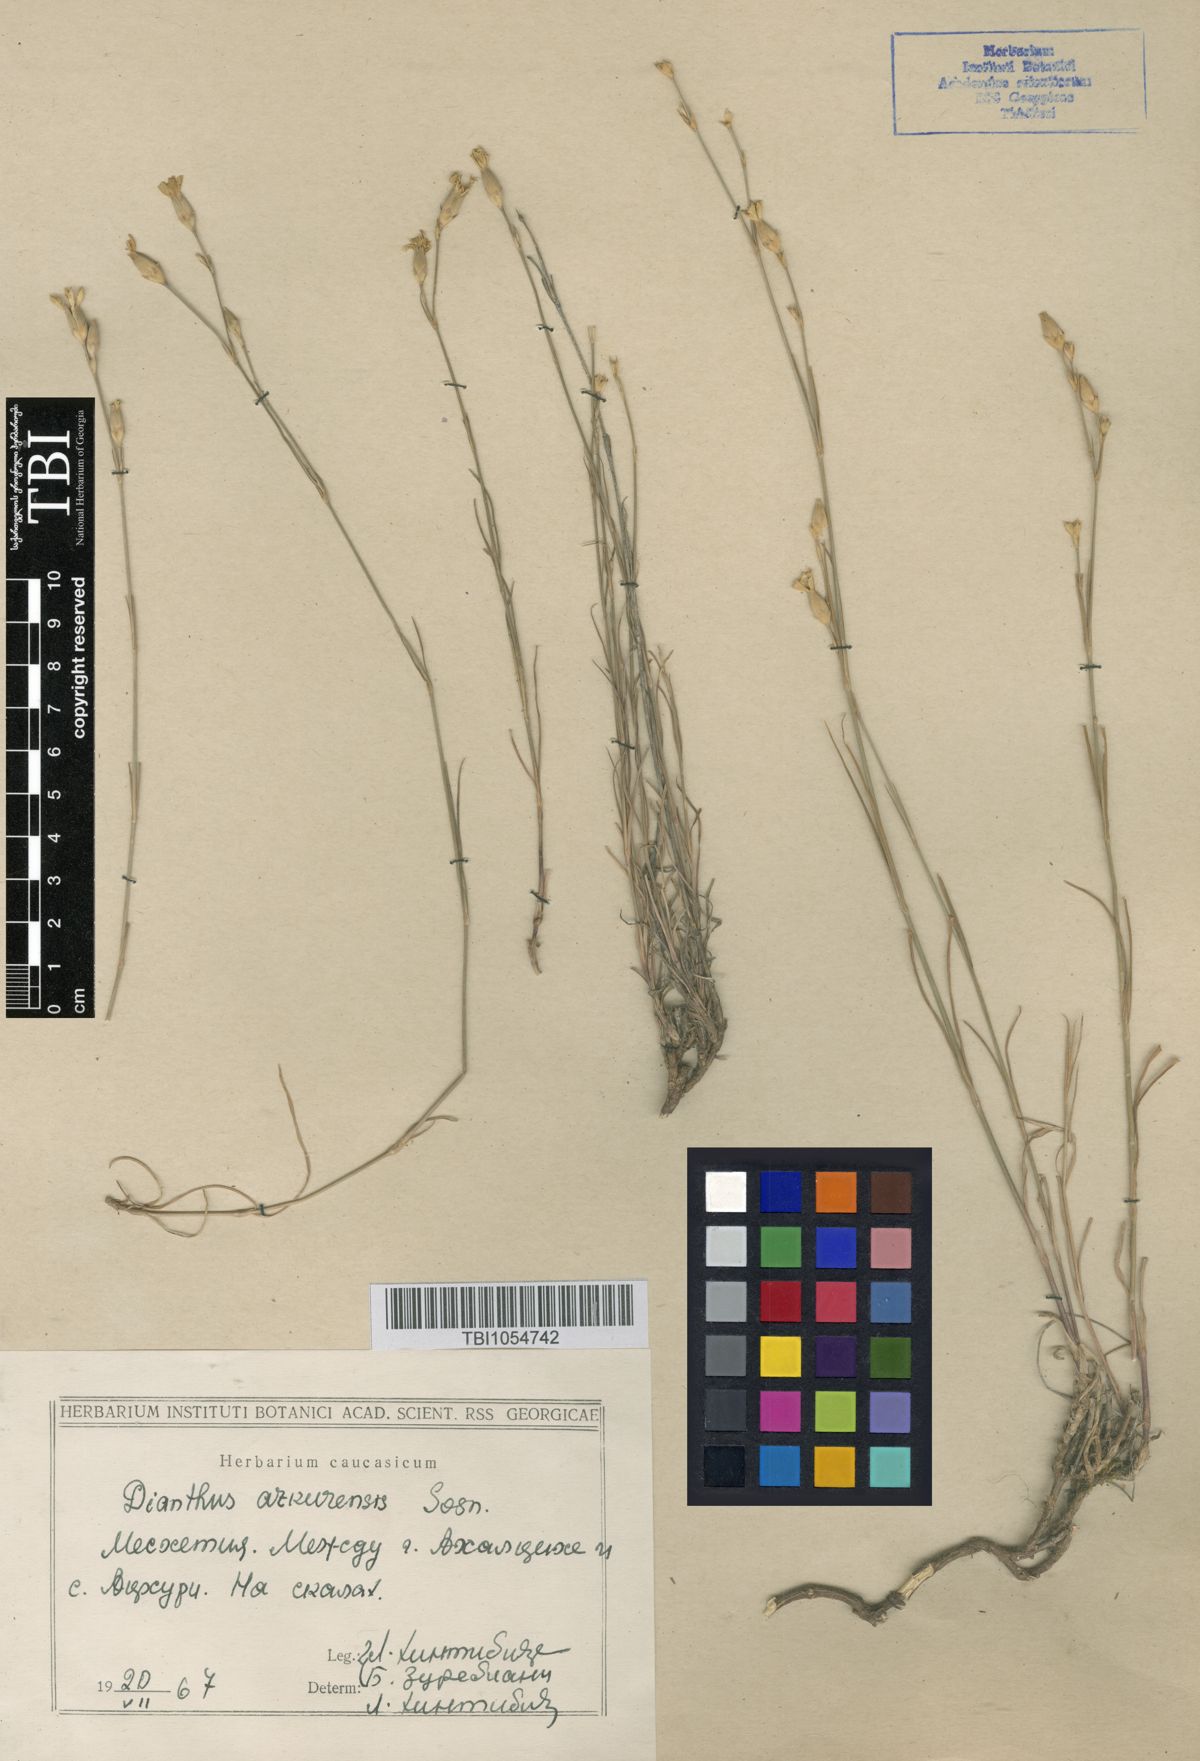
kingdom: Plantae
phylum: Tracheophyta
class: Magnoliopsida
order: Caryophyllales
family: Caryophyllaceae
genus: Dianthus
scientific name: Dianthus
